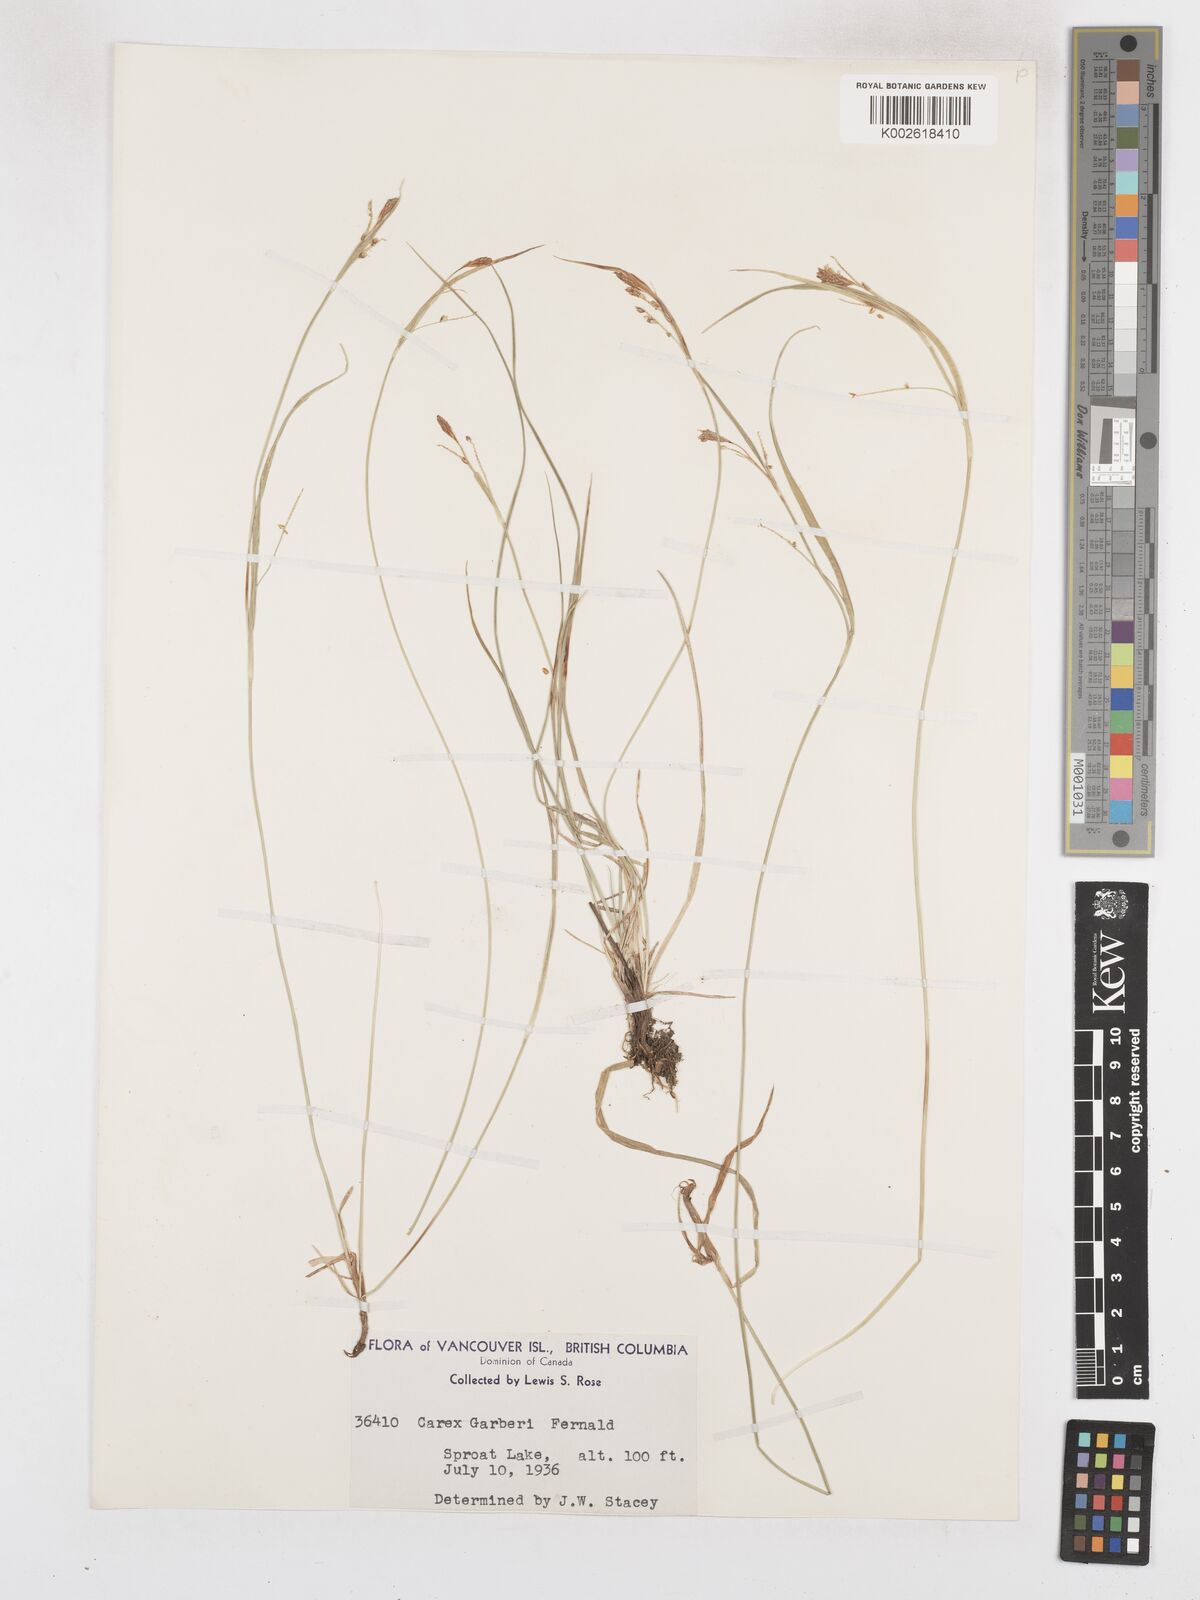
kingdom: Plantae
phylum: Tracheophyta
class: Liliopsida
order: Poales
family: Cyperaceae
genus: Carex
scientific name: Carex garberi
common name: Elk sedge
